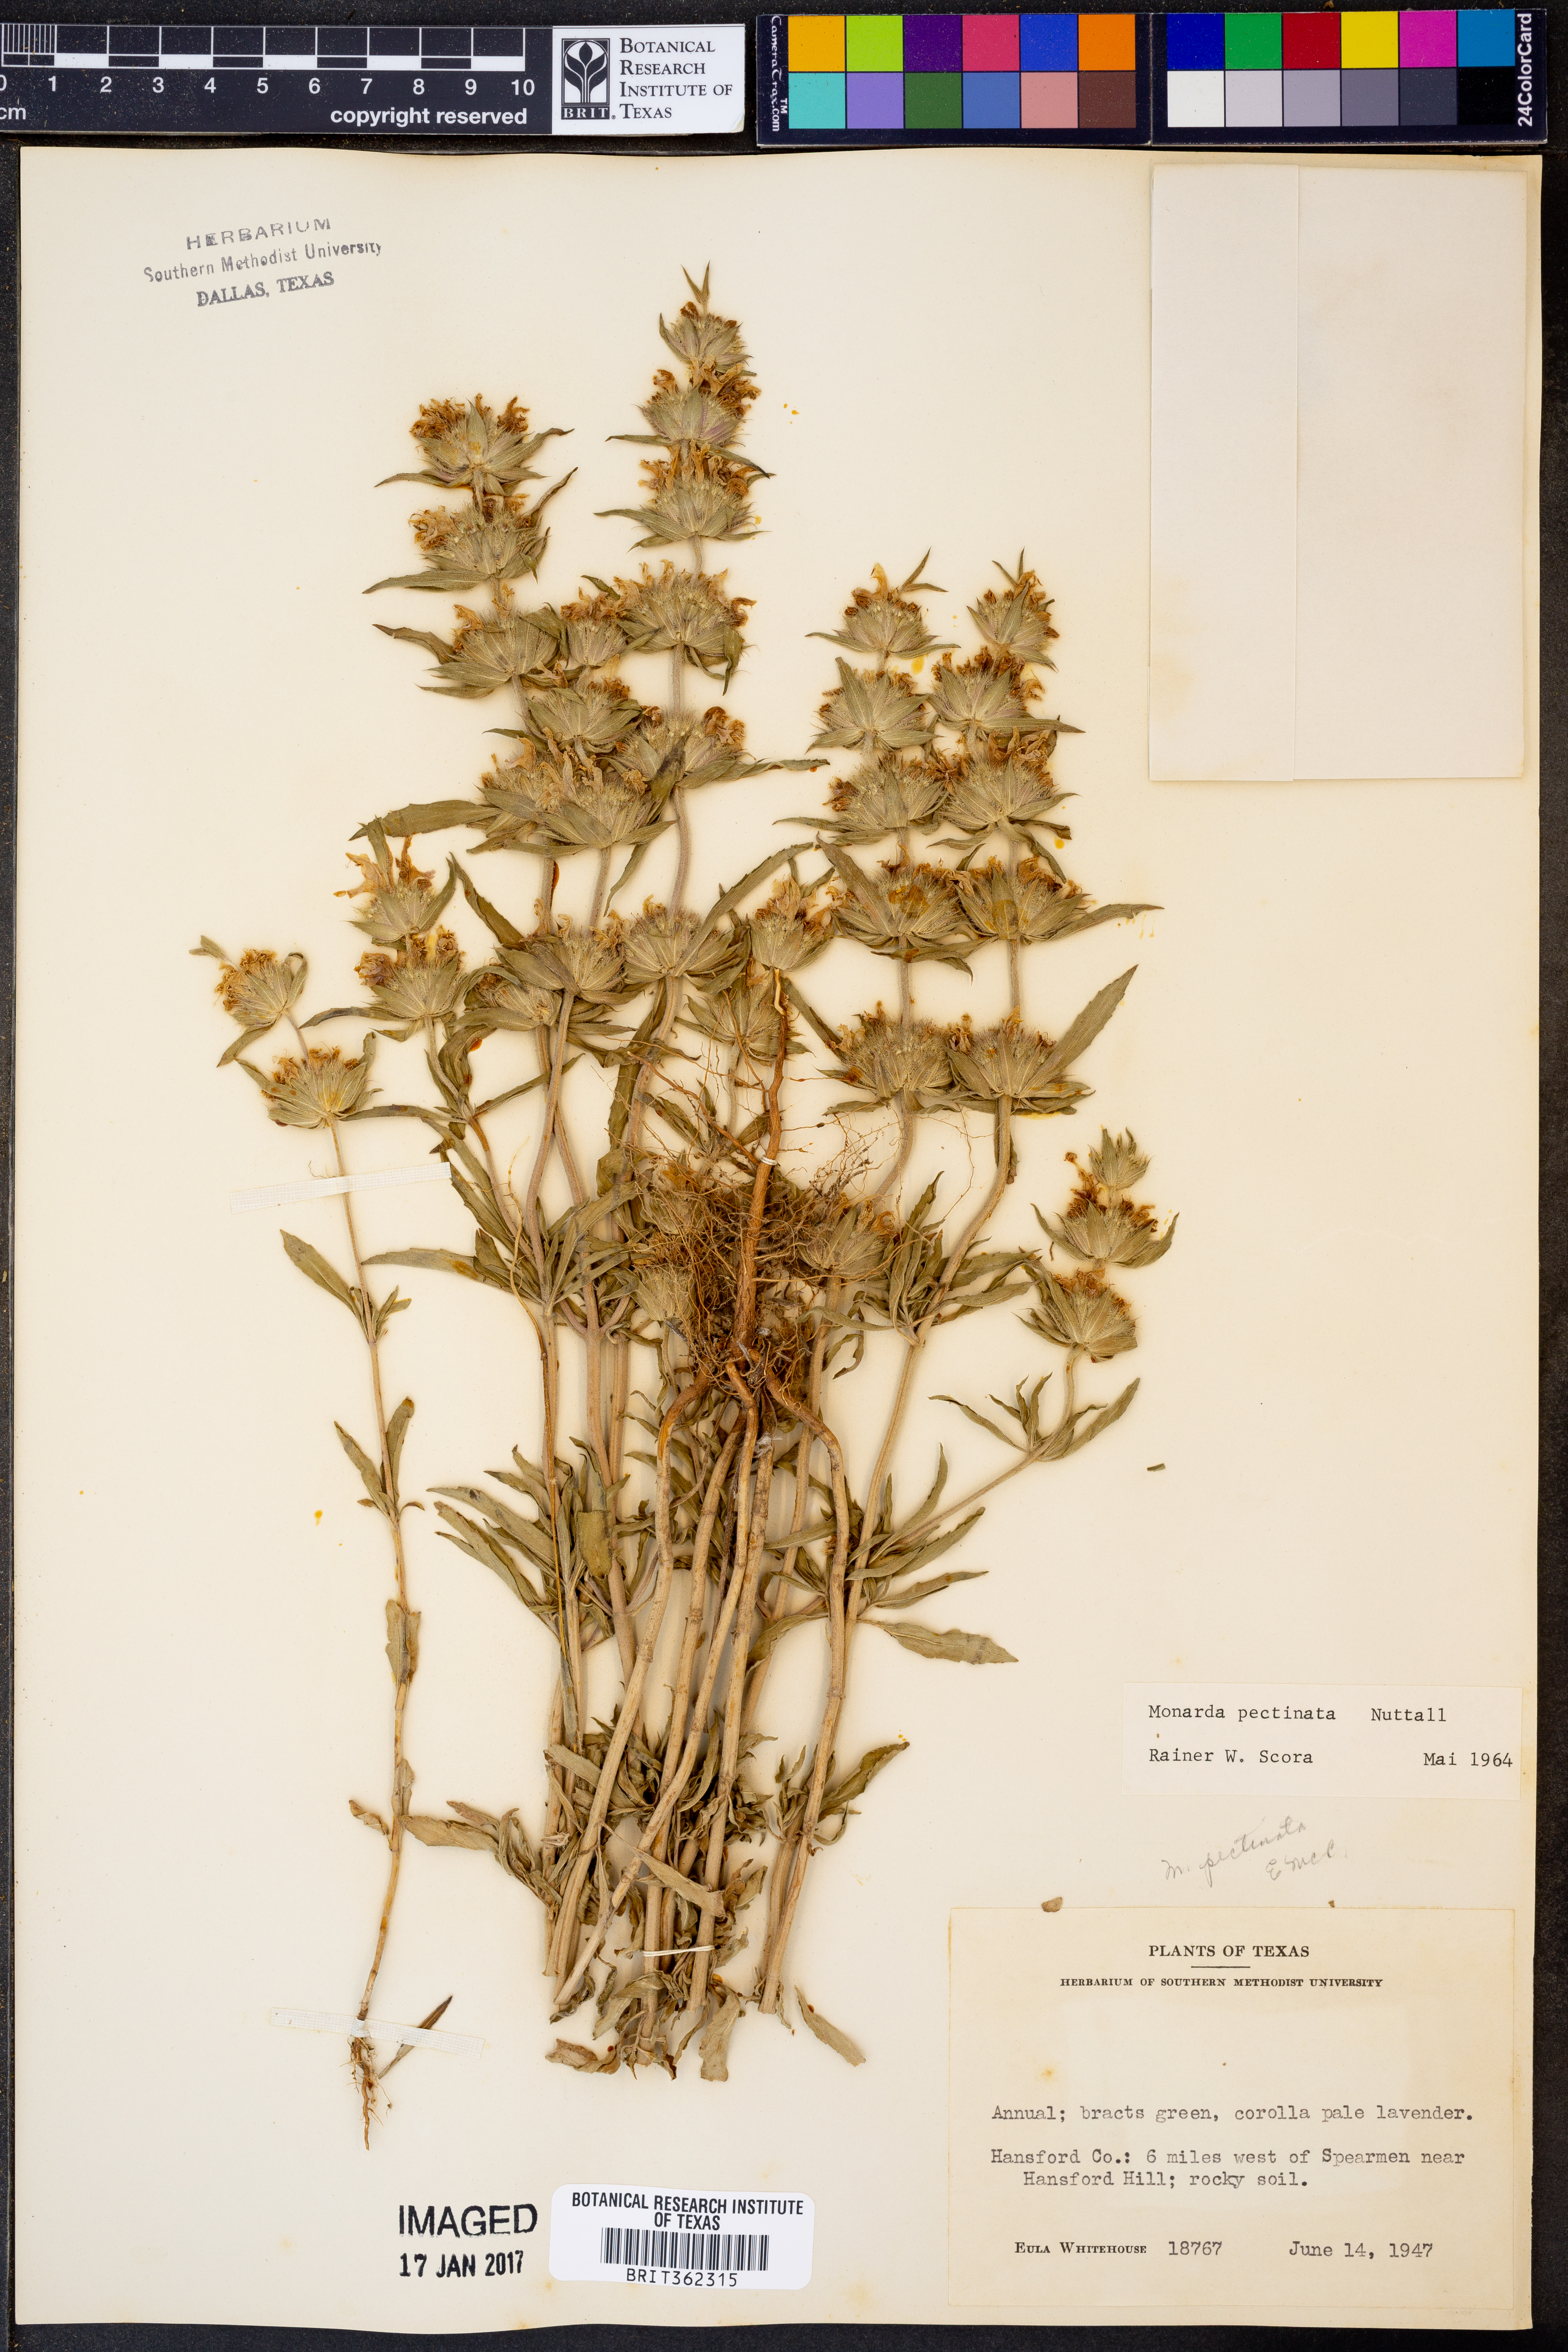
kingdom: Plantae
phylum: Tracheophyta
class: Magnoliopsida
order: Lamiales
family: Lamiaceae
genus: Monarda
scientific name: Monarda pectinata
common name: Plains beebalm
